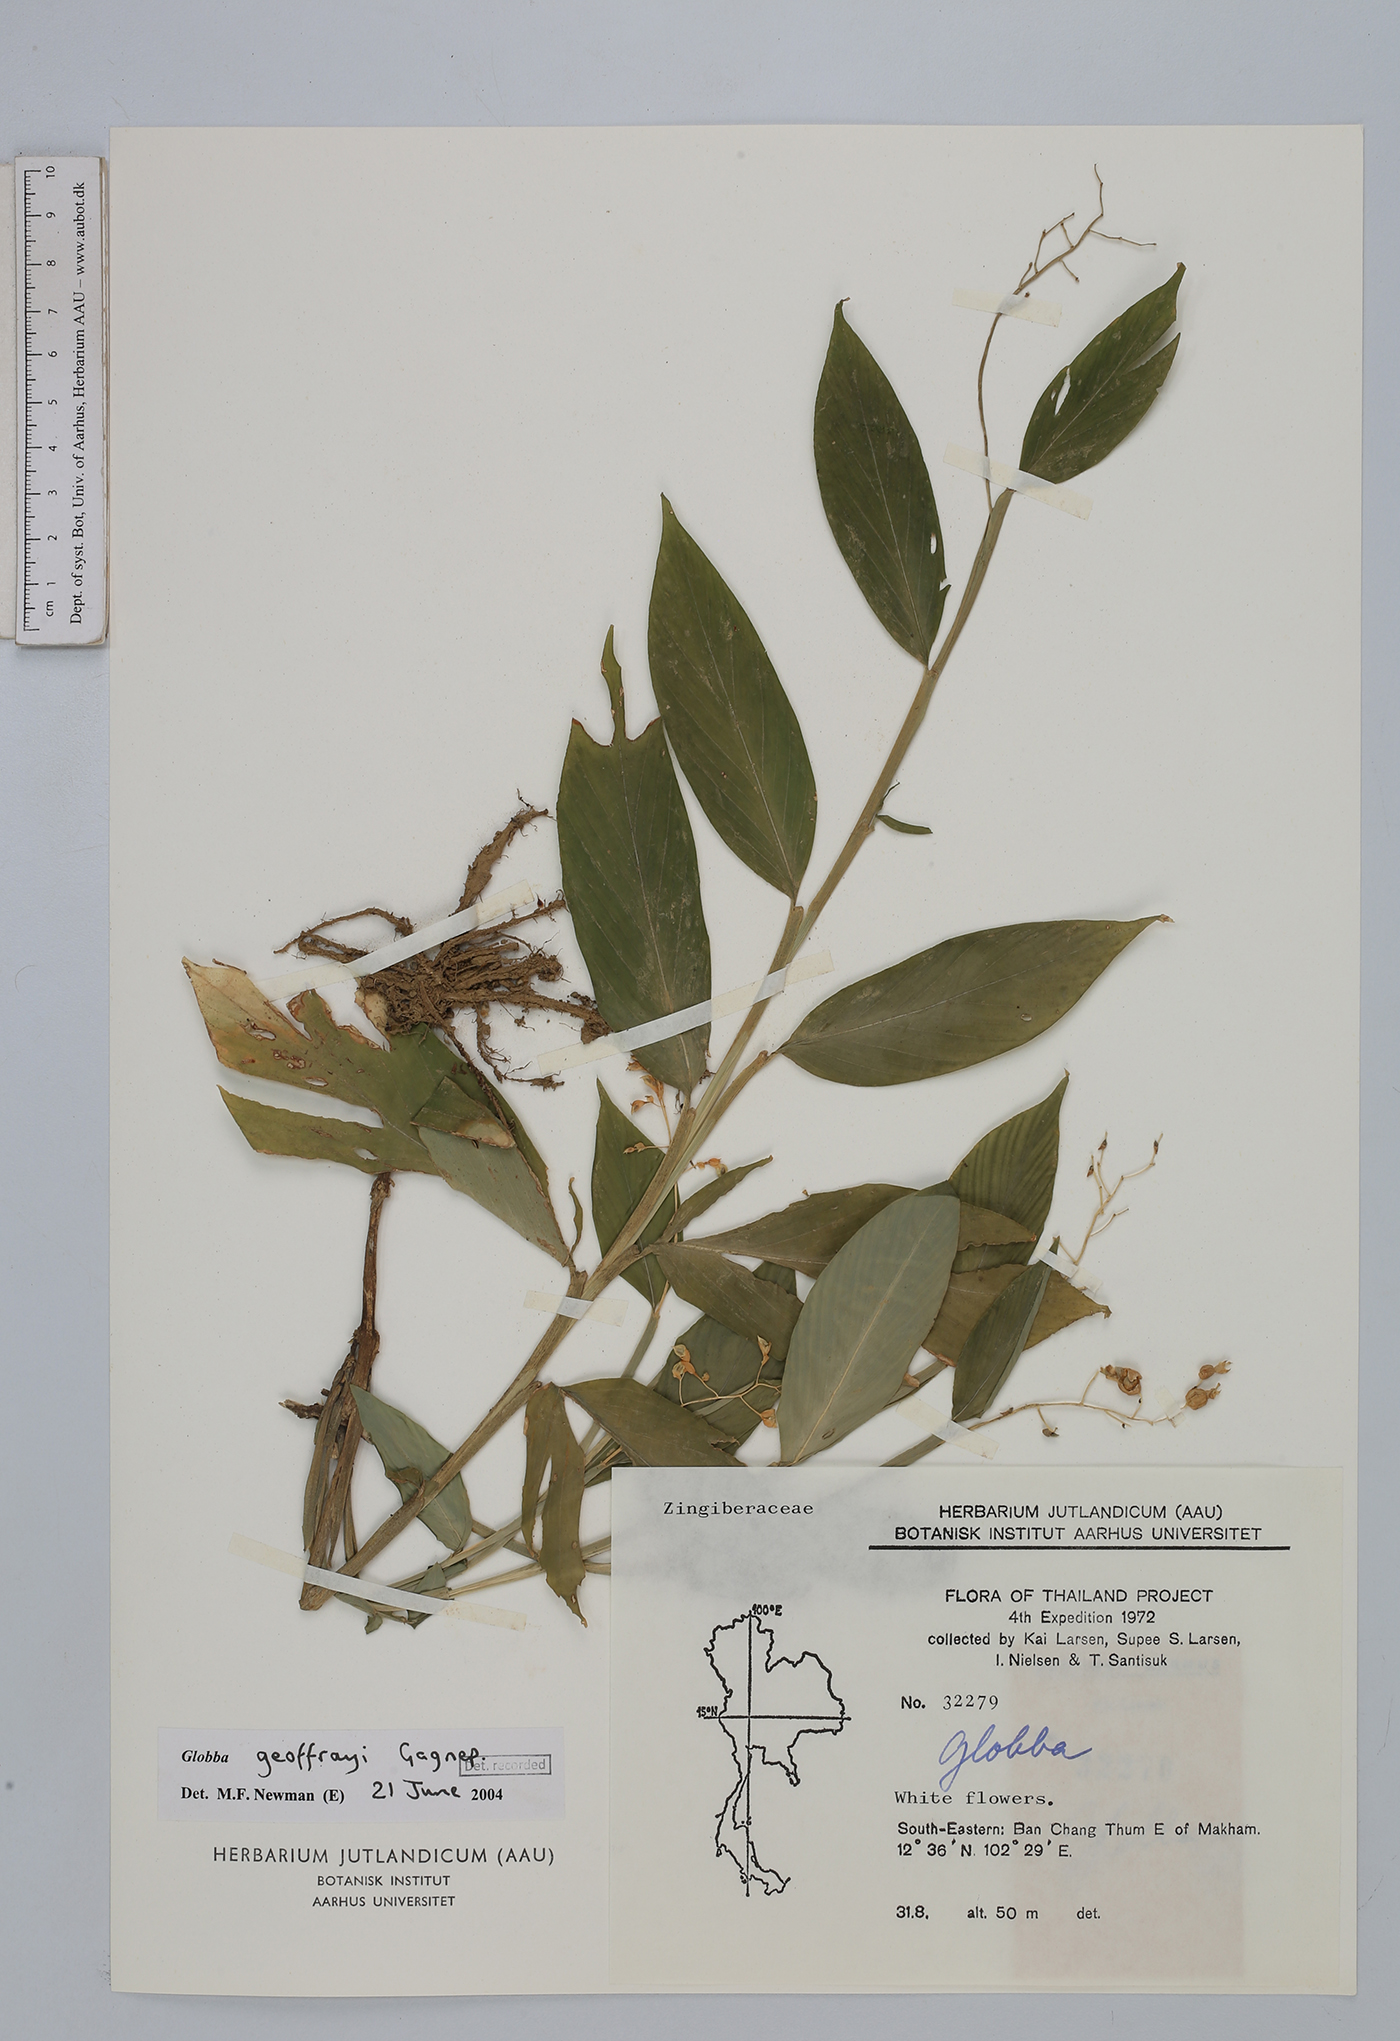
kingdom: Plantae
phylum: Tracheophyta
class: Liliopsida
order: Zingiberales
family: Zingiberaceae
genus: Globba
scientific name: Globba geoffrayi
